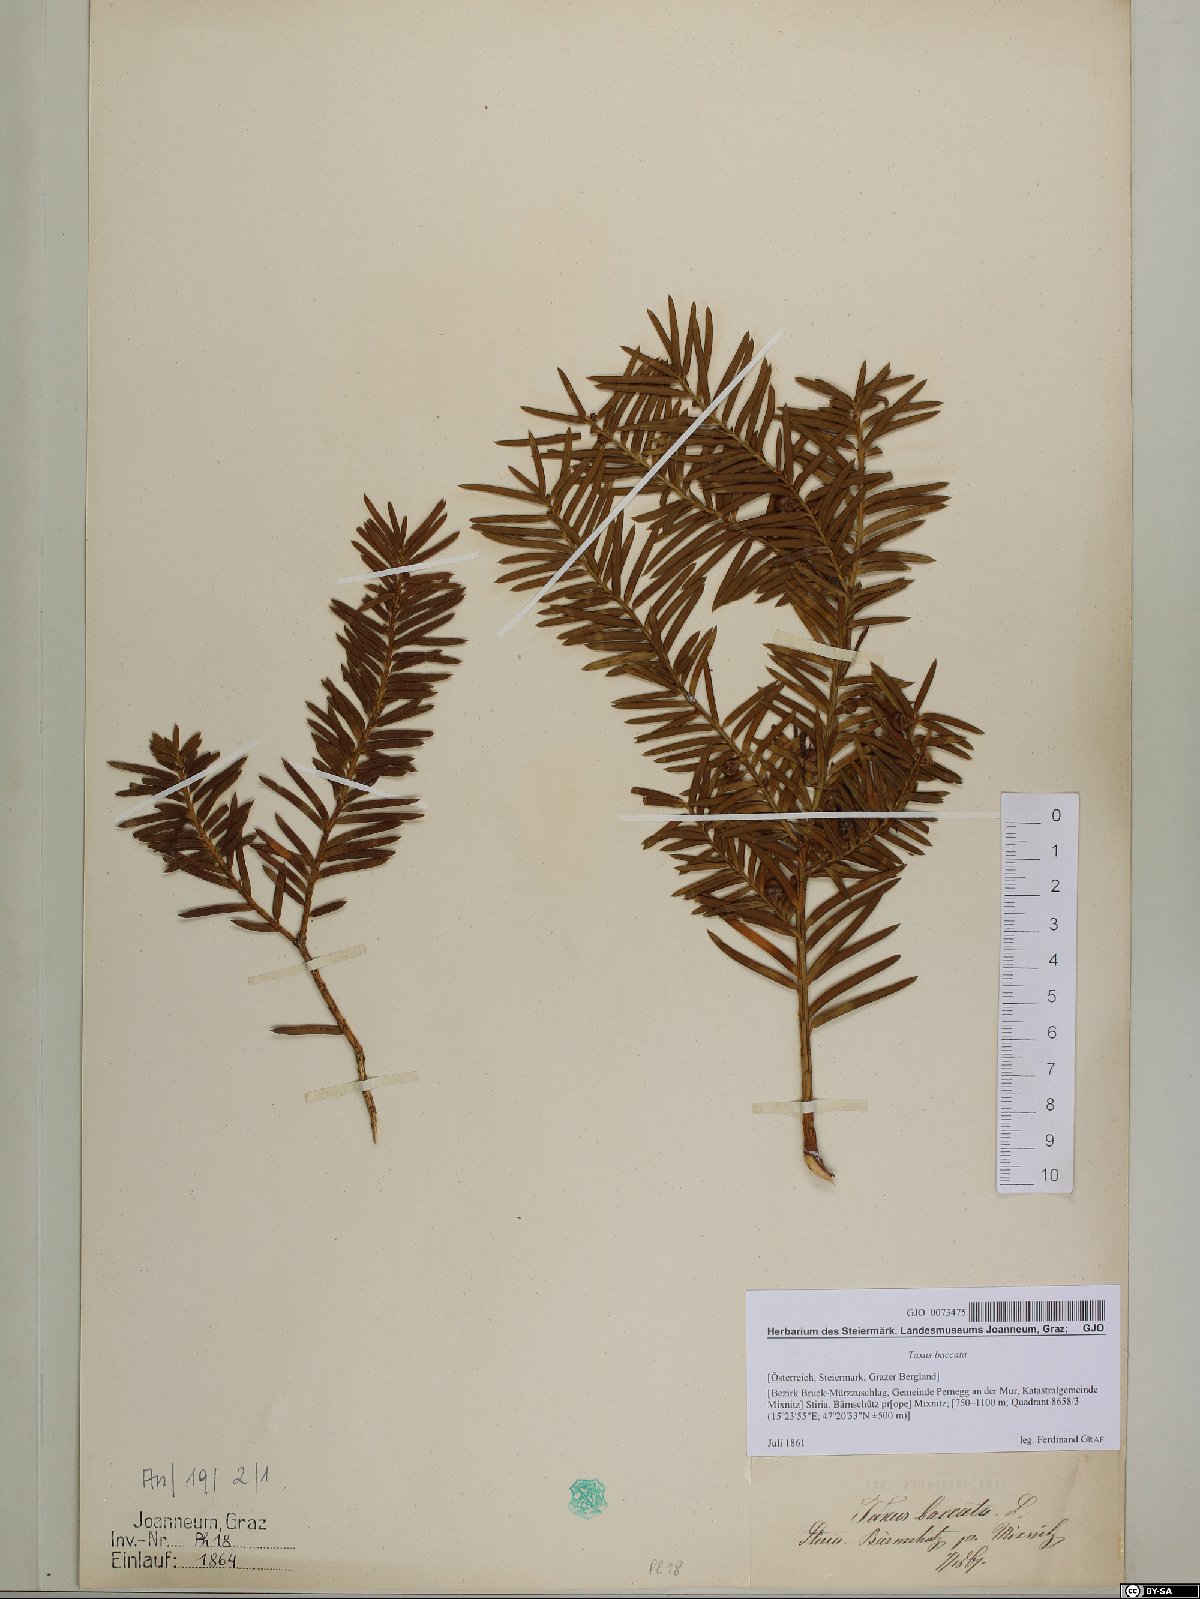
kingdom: Plantae
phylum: Tracheophyta
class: Pinopsida
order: Pinales
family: Taxaceae
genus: Taxus
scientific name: Taxus baccata
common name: Yew
